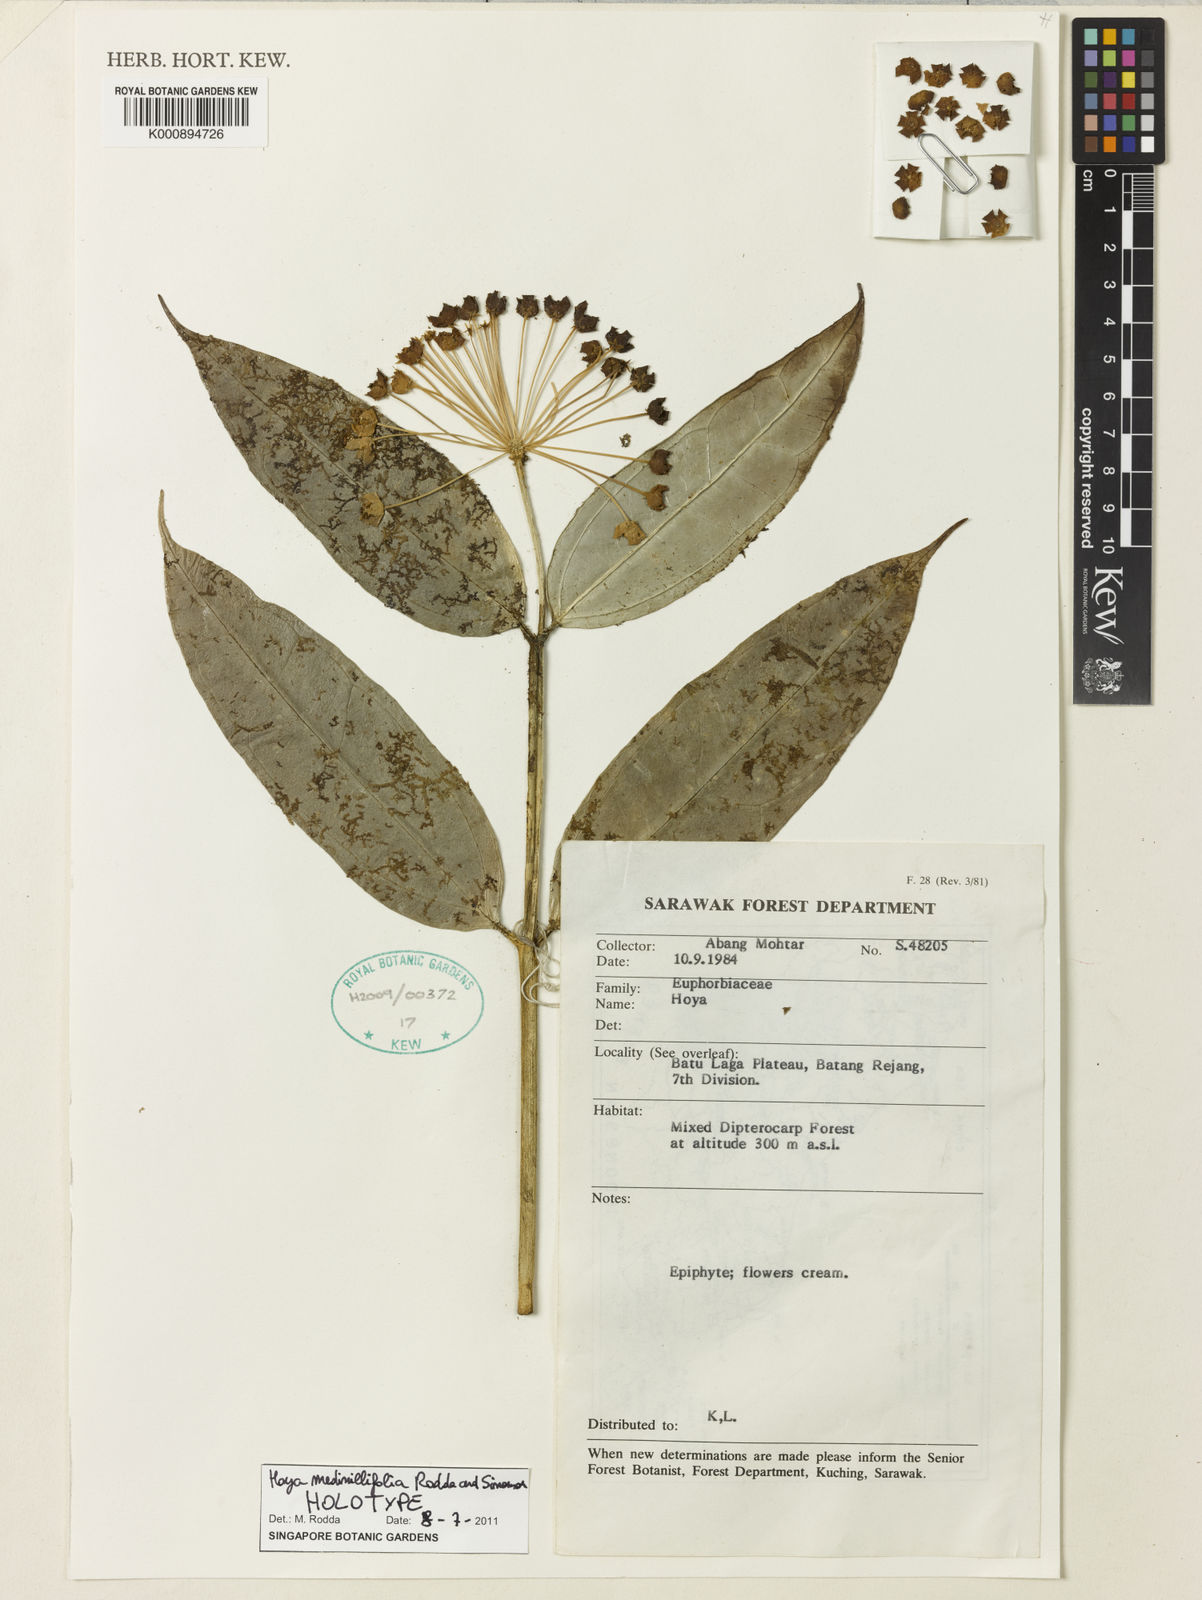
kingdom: Plantae
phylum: Tracheophyta
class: Magnoliopsida
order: Gentianales
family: Apocynaceae
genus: Hoya
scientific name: Hoya medinillifolia
